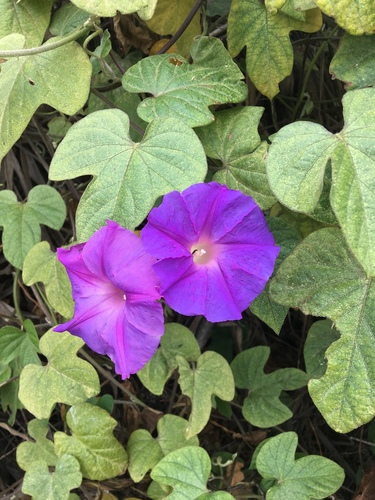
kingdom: Plantae
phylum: Tracheophyta
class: Magnoliopsida
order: Solanales
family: Convolvulaceae
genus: Ipomoea
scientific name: Ipomoea indica
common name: Blue dawnflower
